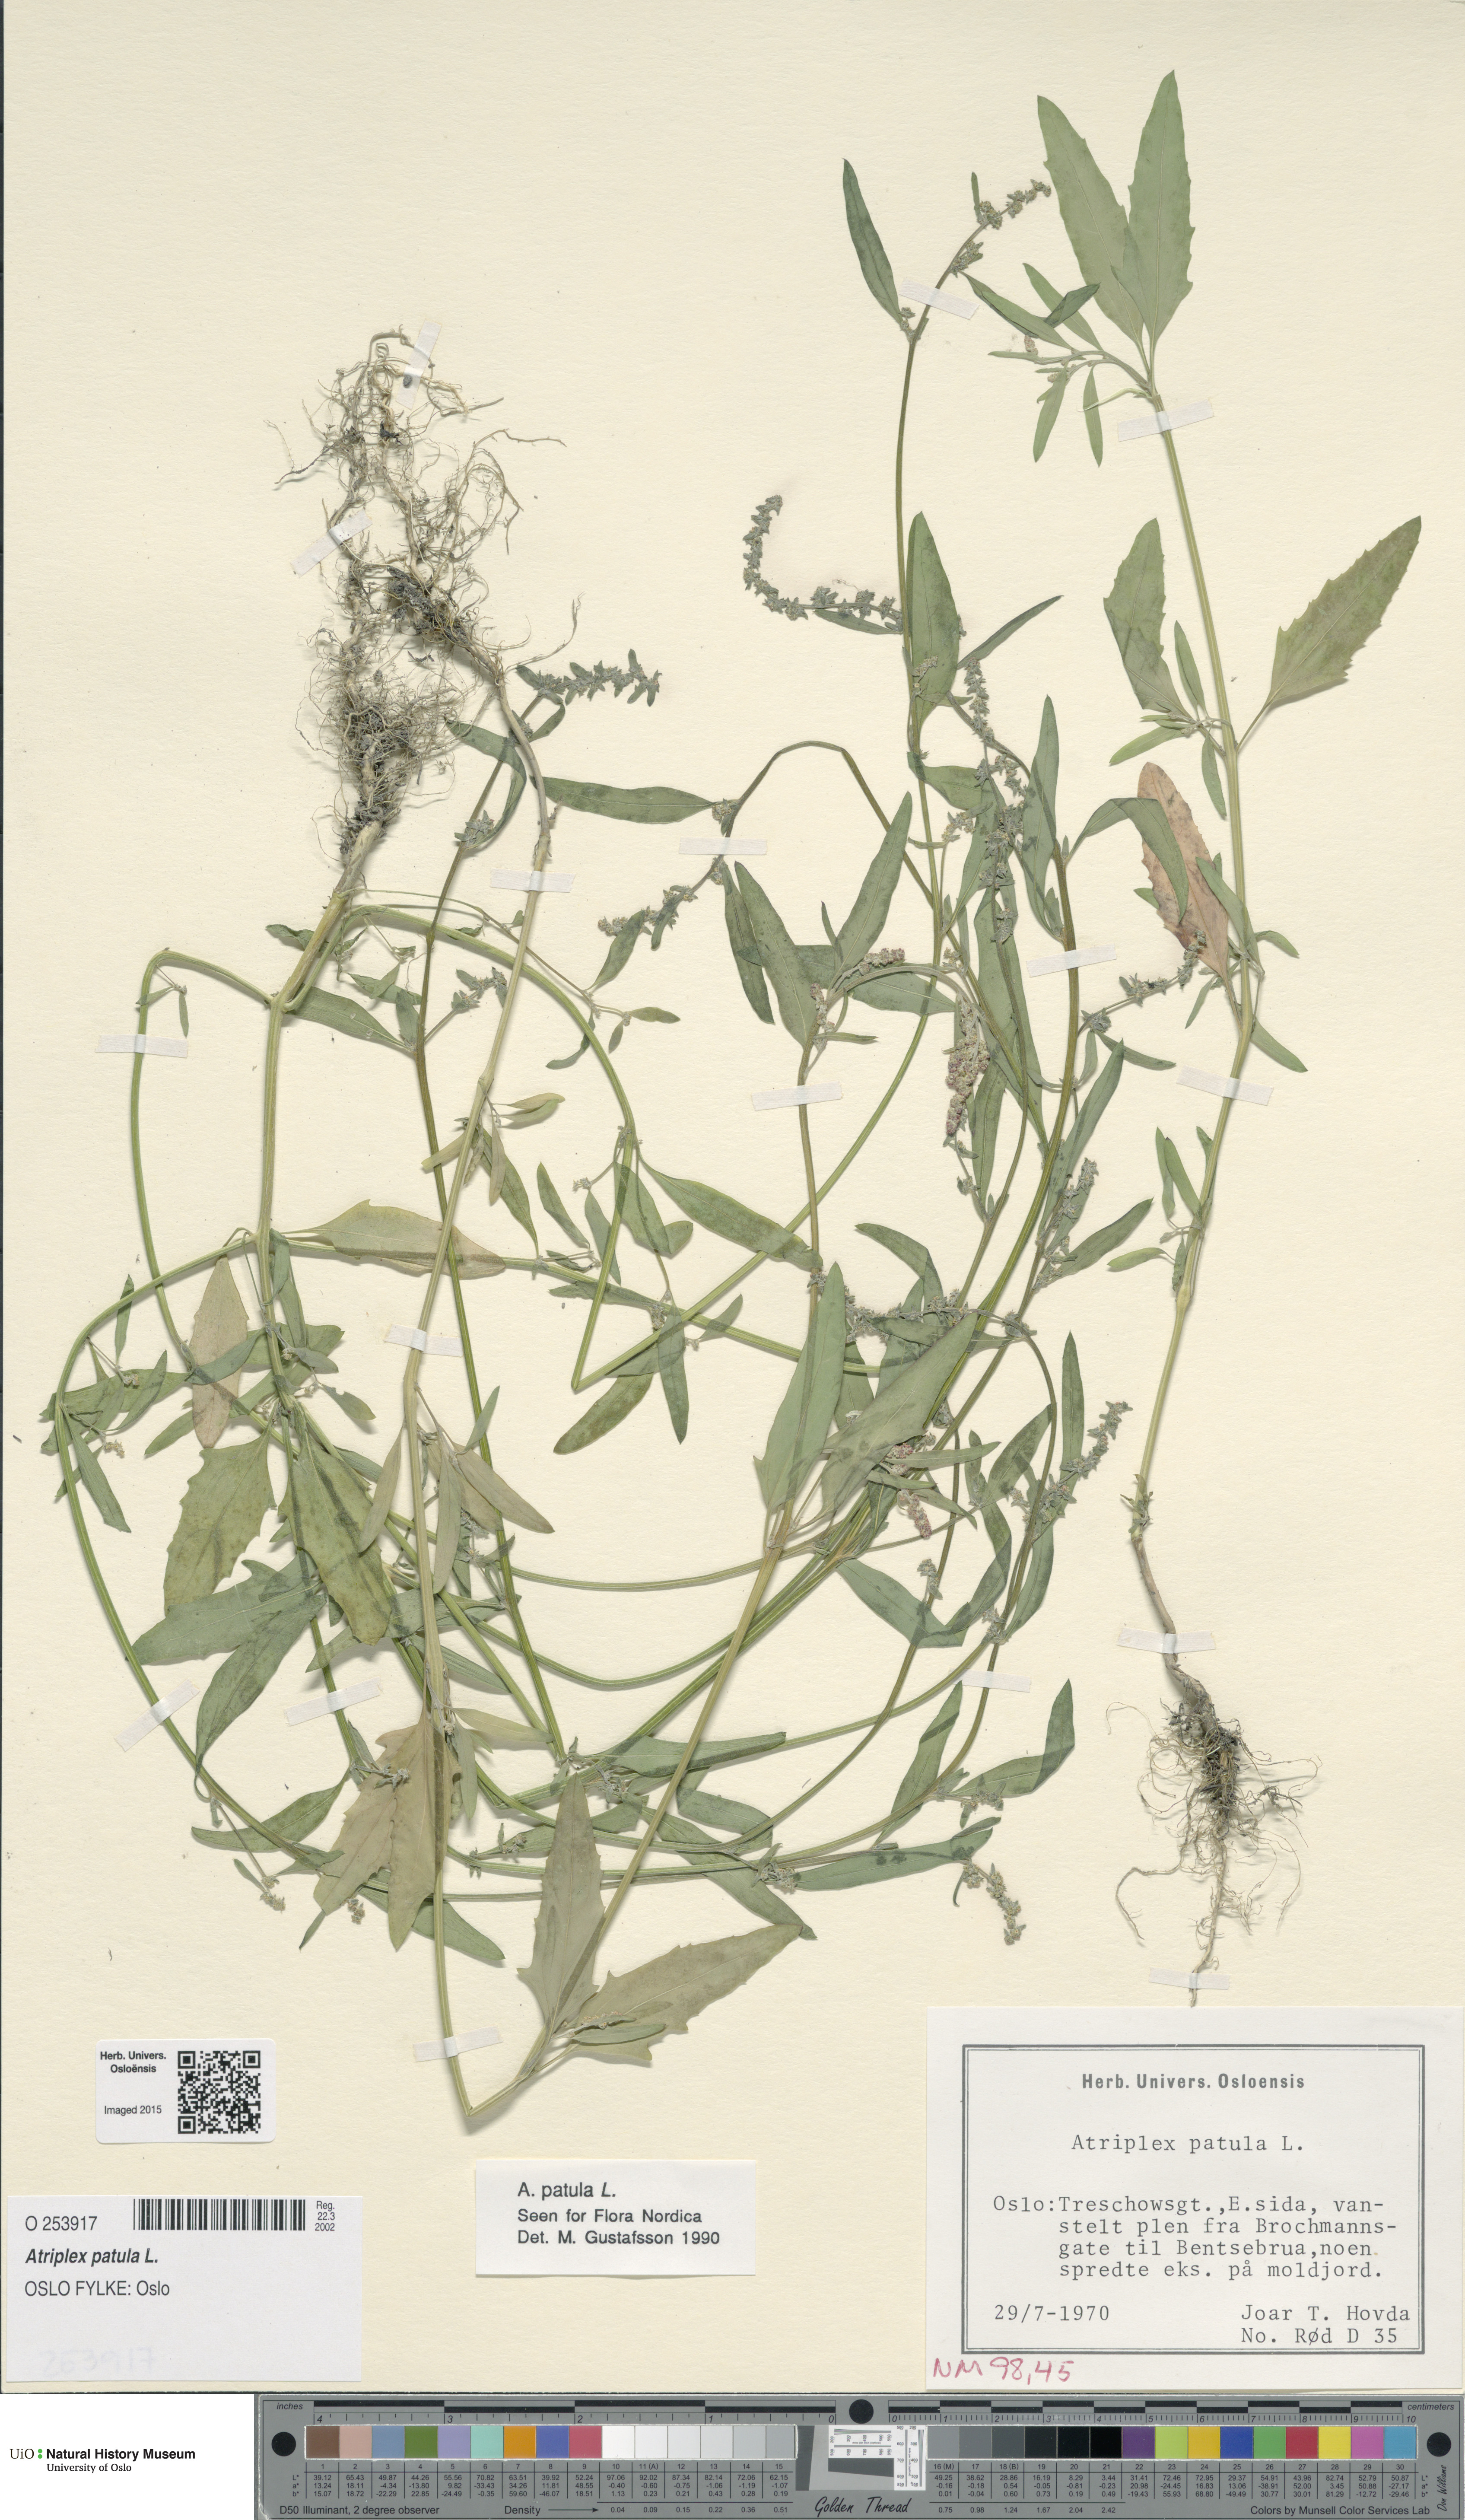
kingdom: Plantae
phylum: Tracheophyta
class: Magnoliopsida
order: Caryophyllales
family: Amaranthaceae
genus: Atriplex
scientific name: Atriplex patula
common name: Common orache
